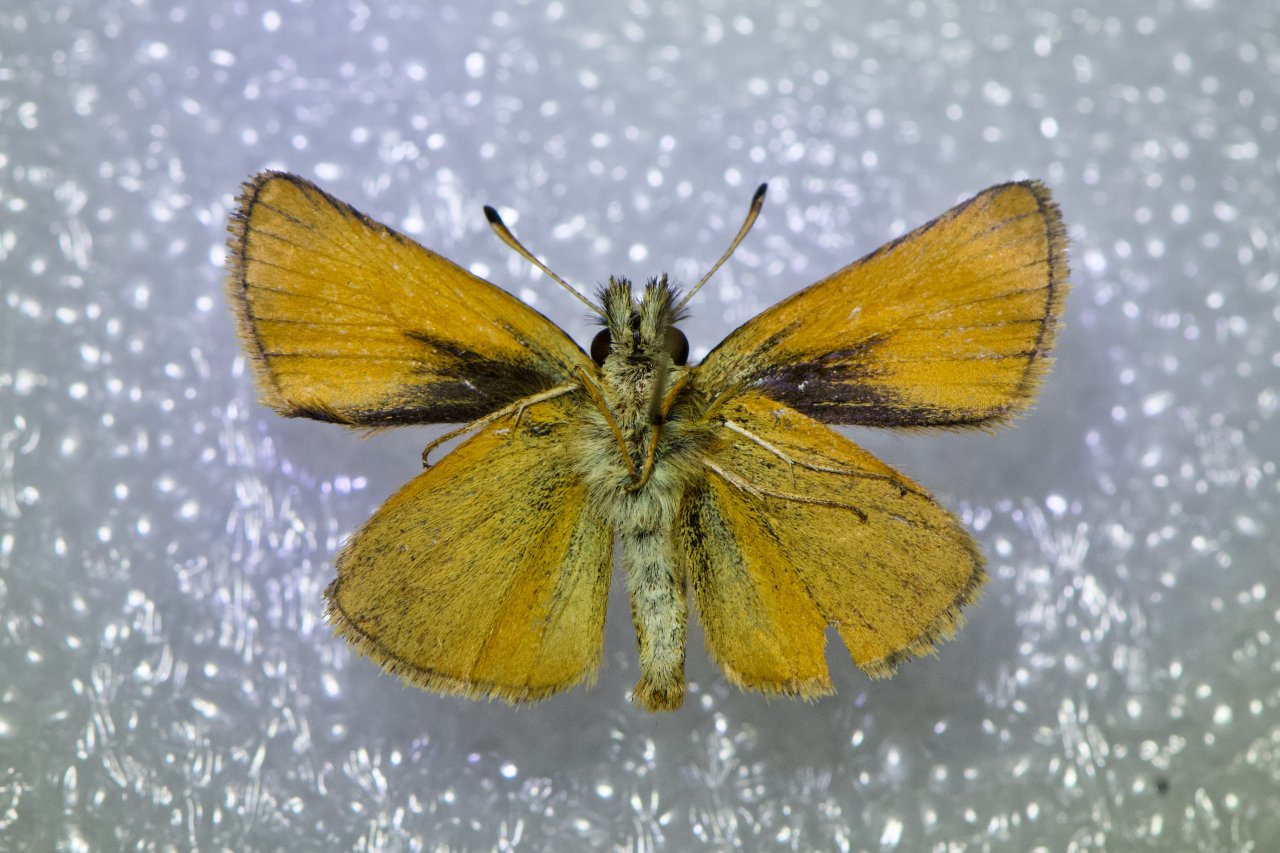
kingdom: Animalia
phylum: Arthropoda
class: Insecta
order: Lepidoptera
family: Hesperiidae
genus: Thymelicus
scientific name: Thymelicus lineola
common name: European Skipper
